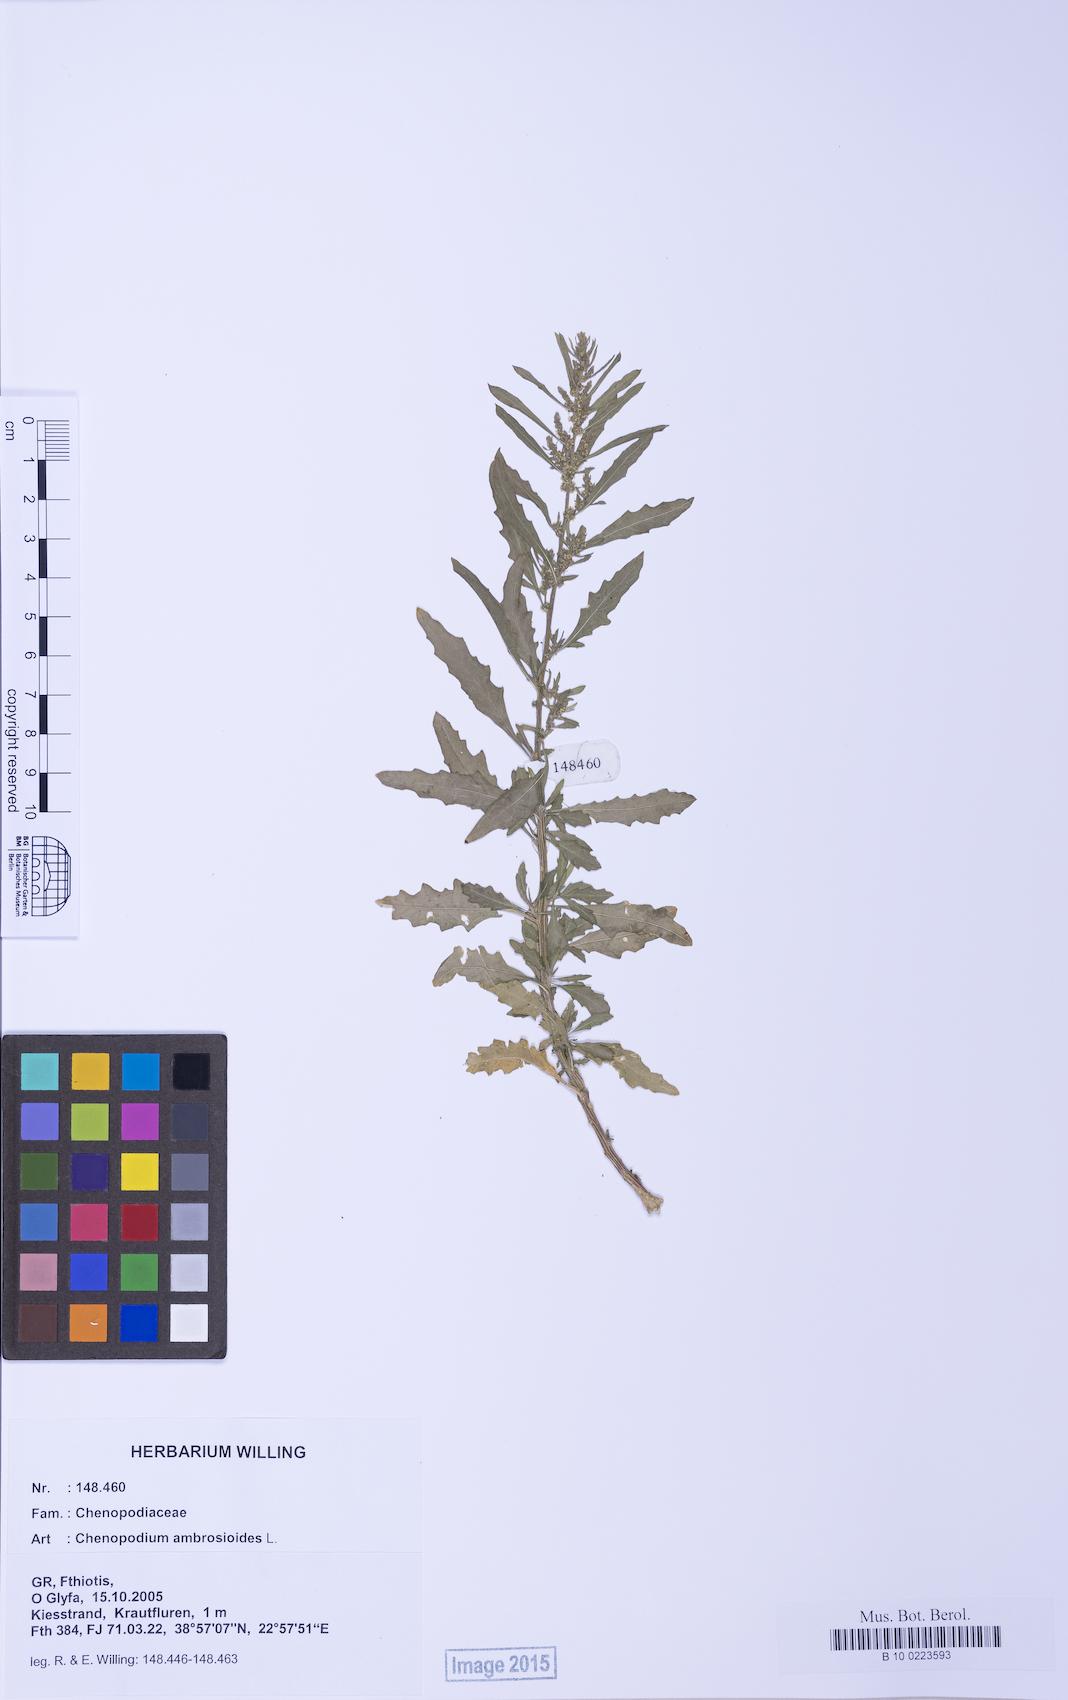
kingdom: Plantae
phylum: Tracheophyta
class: Magnoliopsida
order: Caryophyllales
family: Amaranthaceae
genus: Dysphania
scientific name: Dysphania ambrosioides
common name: Wormseed
